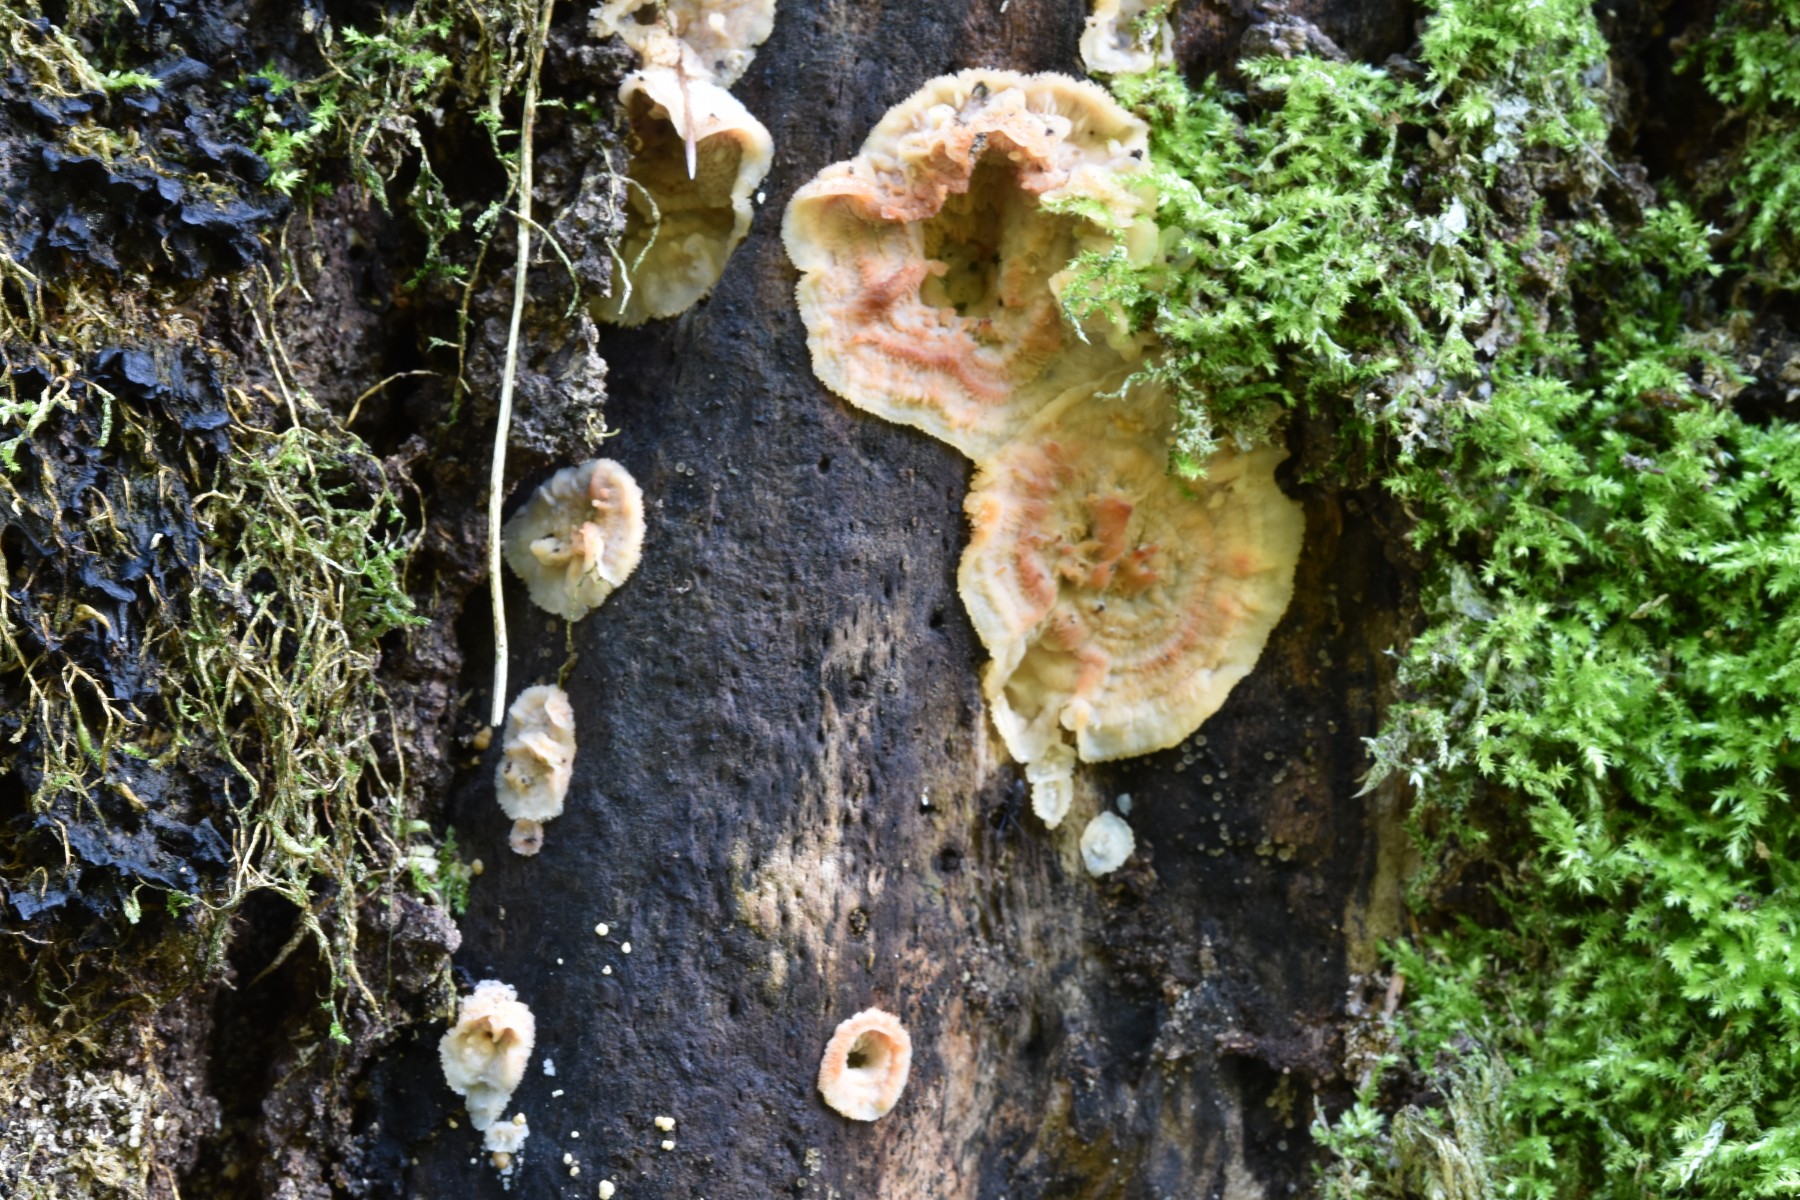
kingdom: Fungi
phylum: Basidiomycota
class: Agaricomycetes
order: Polyporales
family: Meruliaceae
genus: Phlebia
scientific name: Phlebia radiata
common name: stråle-åresvamp
